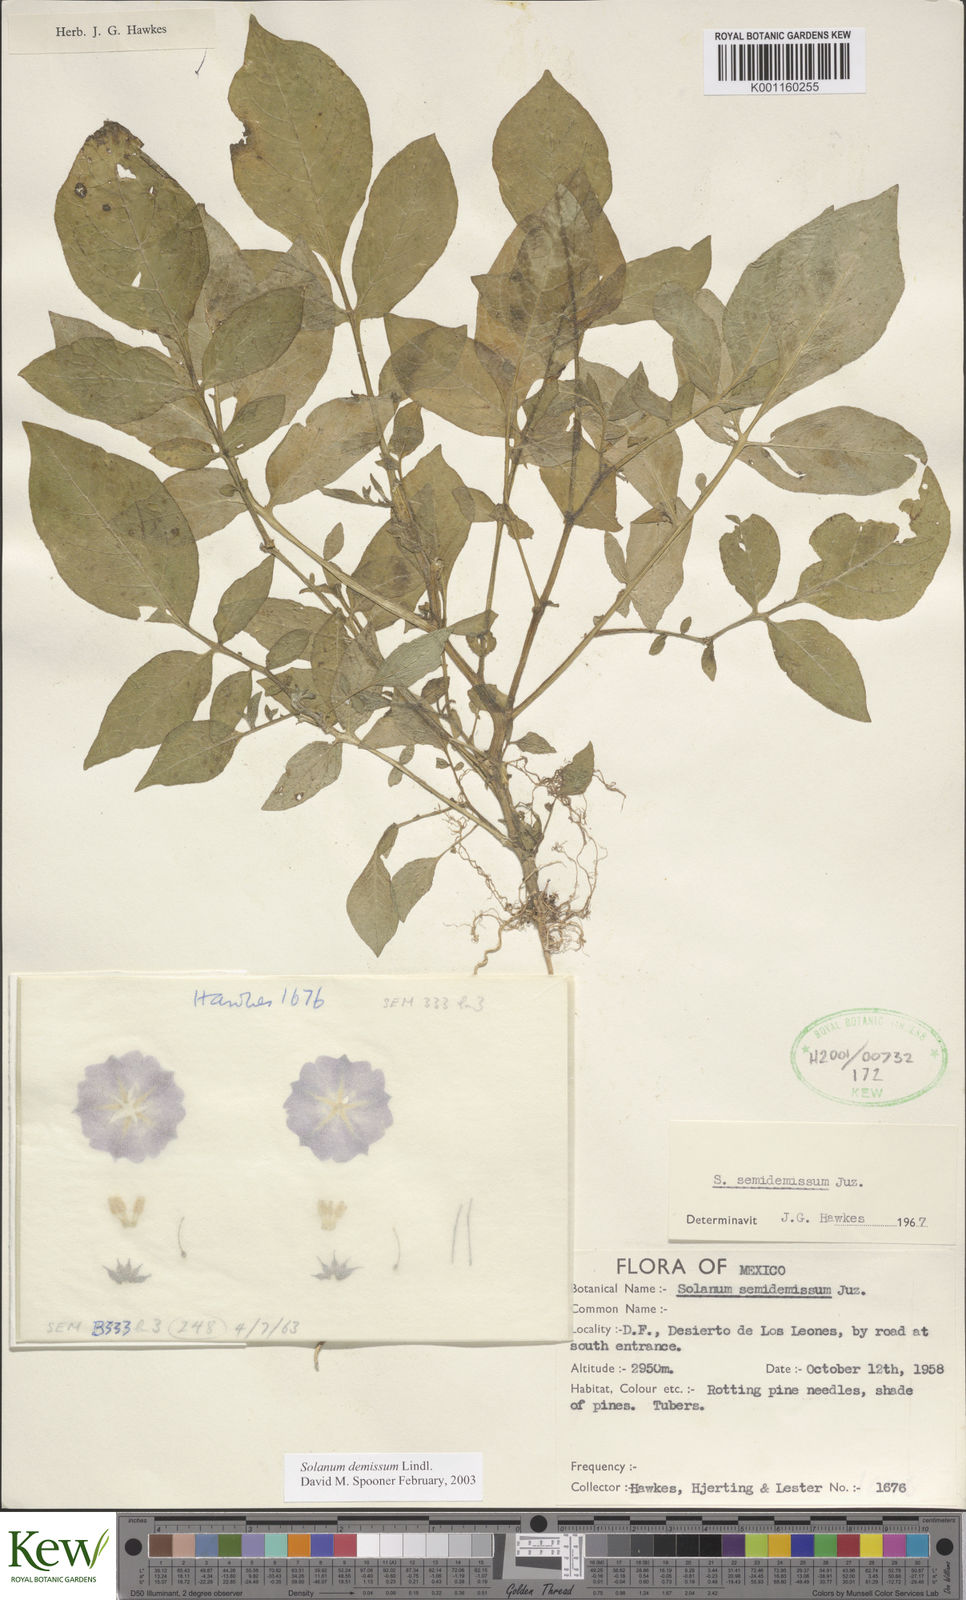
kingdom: Plantae
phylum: Tracheophyta
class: Magnoliopsida
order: Solanales
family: Solanaceae
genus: Solanum
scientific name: Solanum demissum
